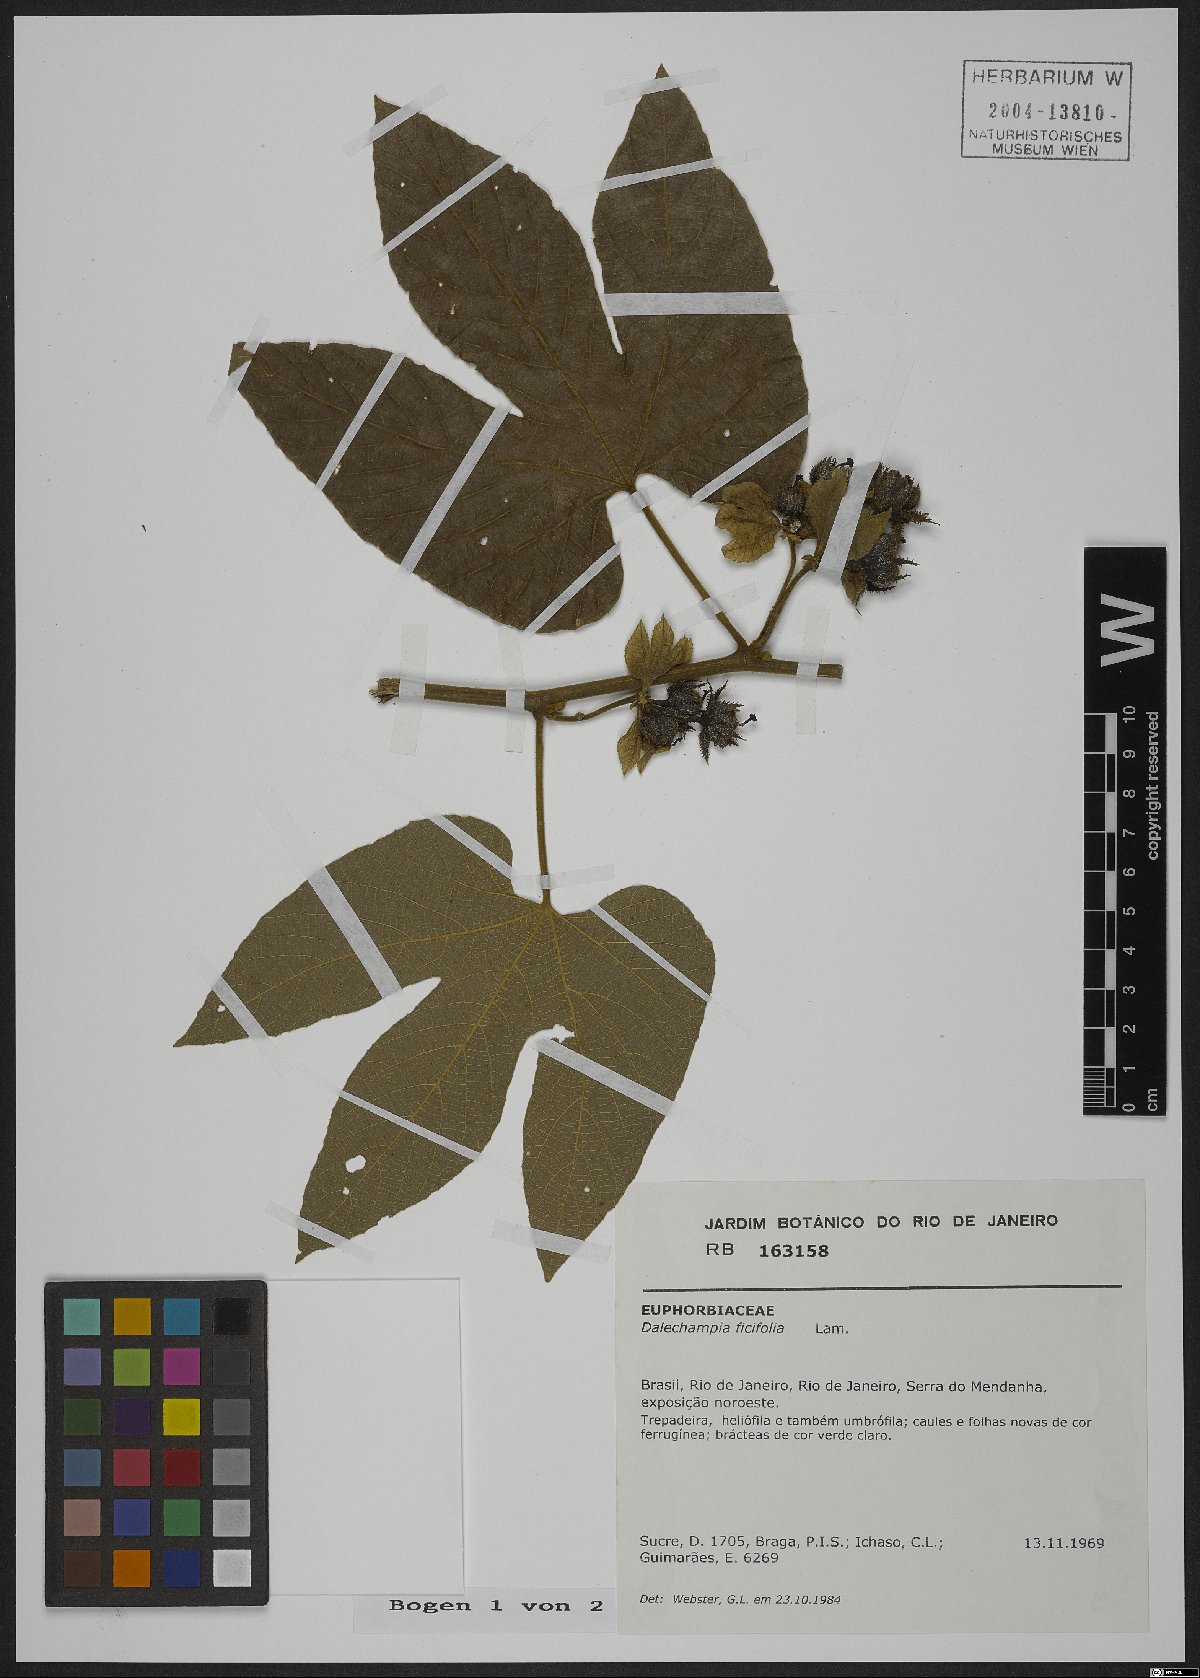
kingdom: Plantae
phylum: Tracheophyta
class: Magnoliopsida
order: Malpighiales
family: Euphorbiaceae
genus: Dalechampia
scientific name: Dalechampia ficifolia
